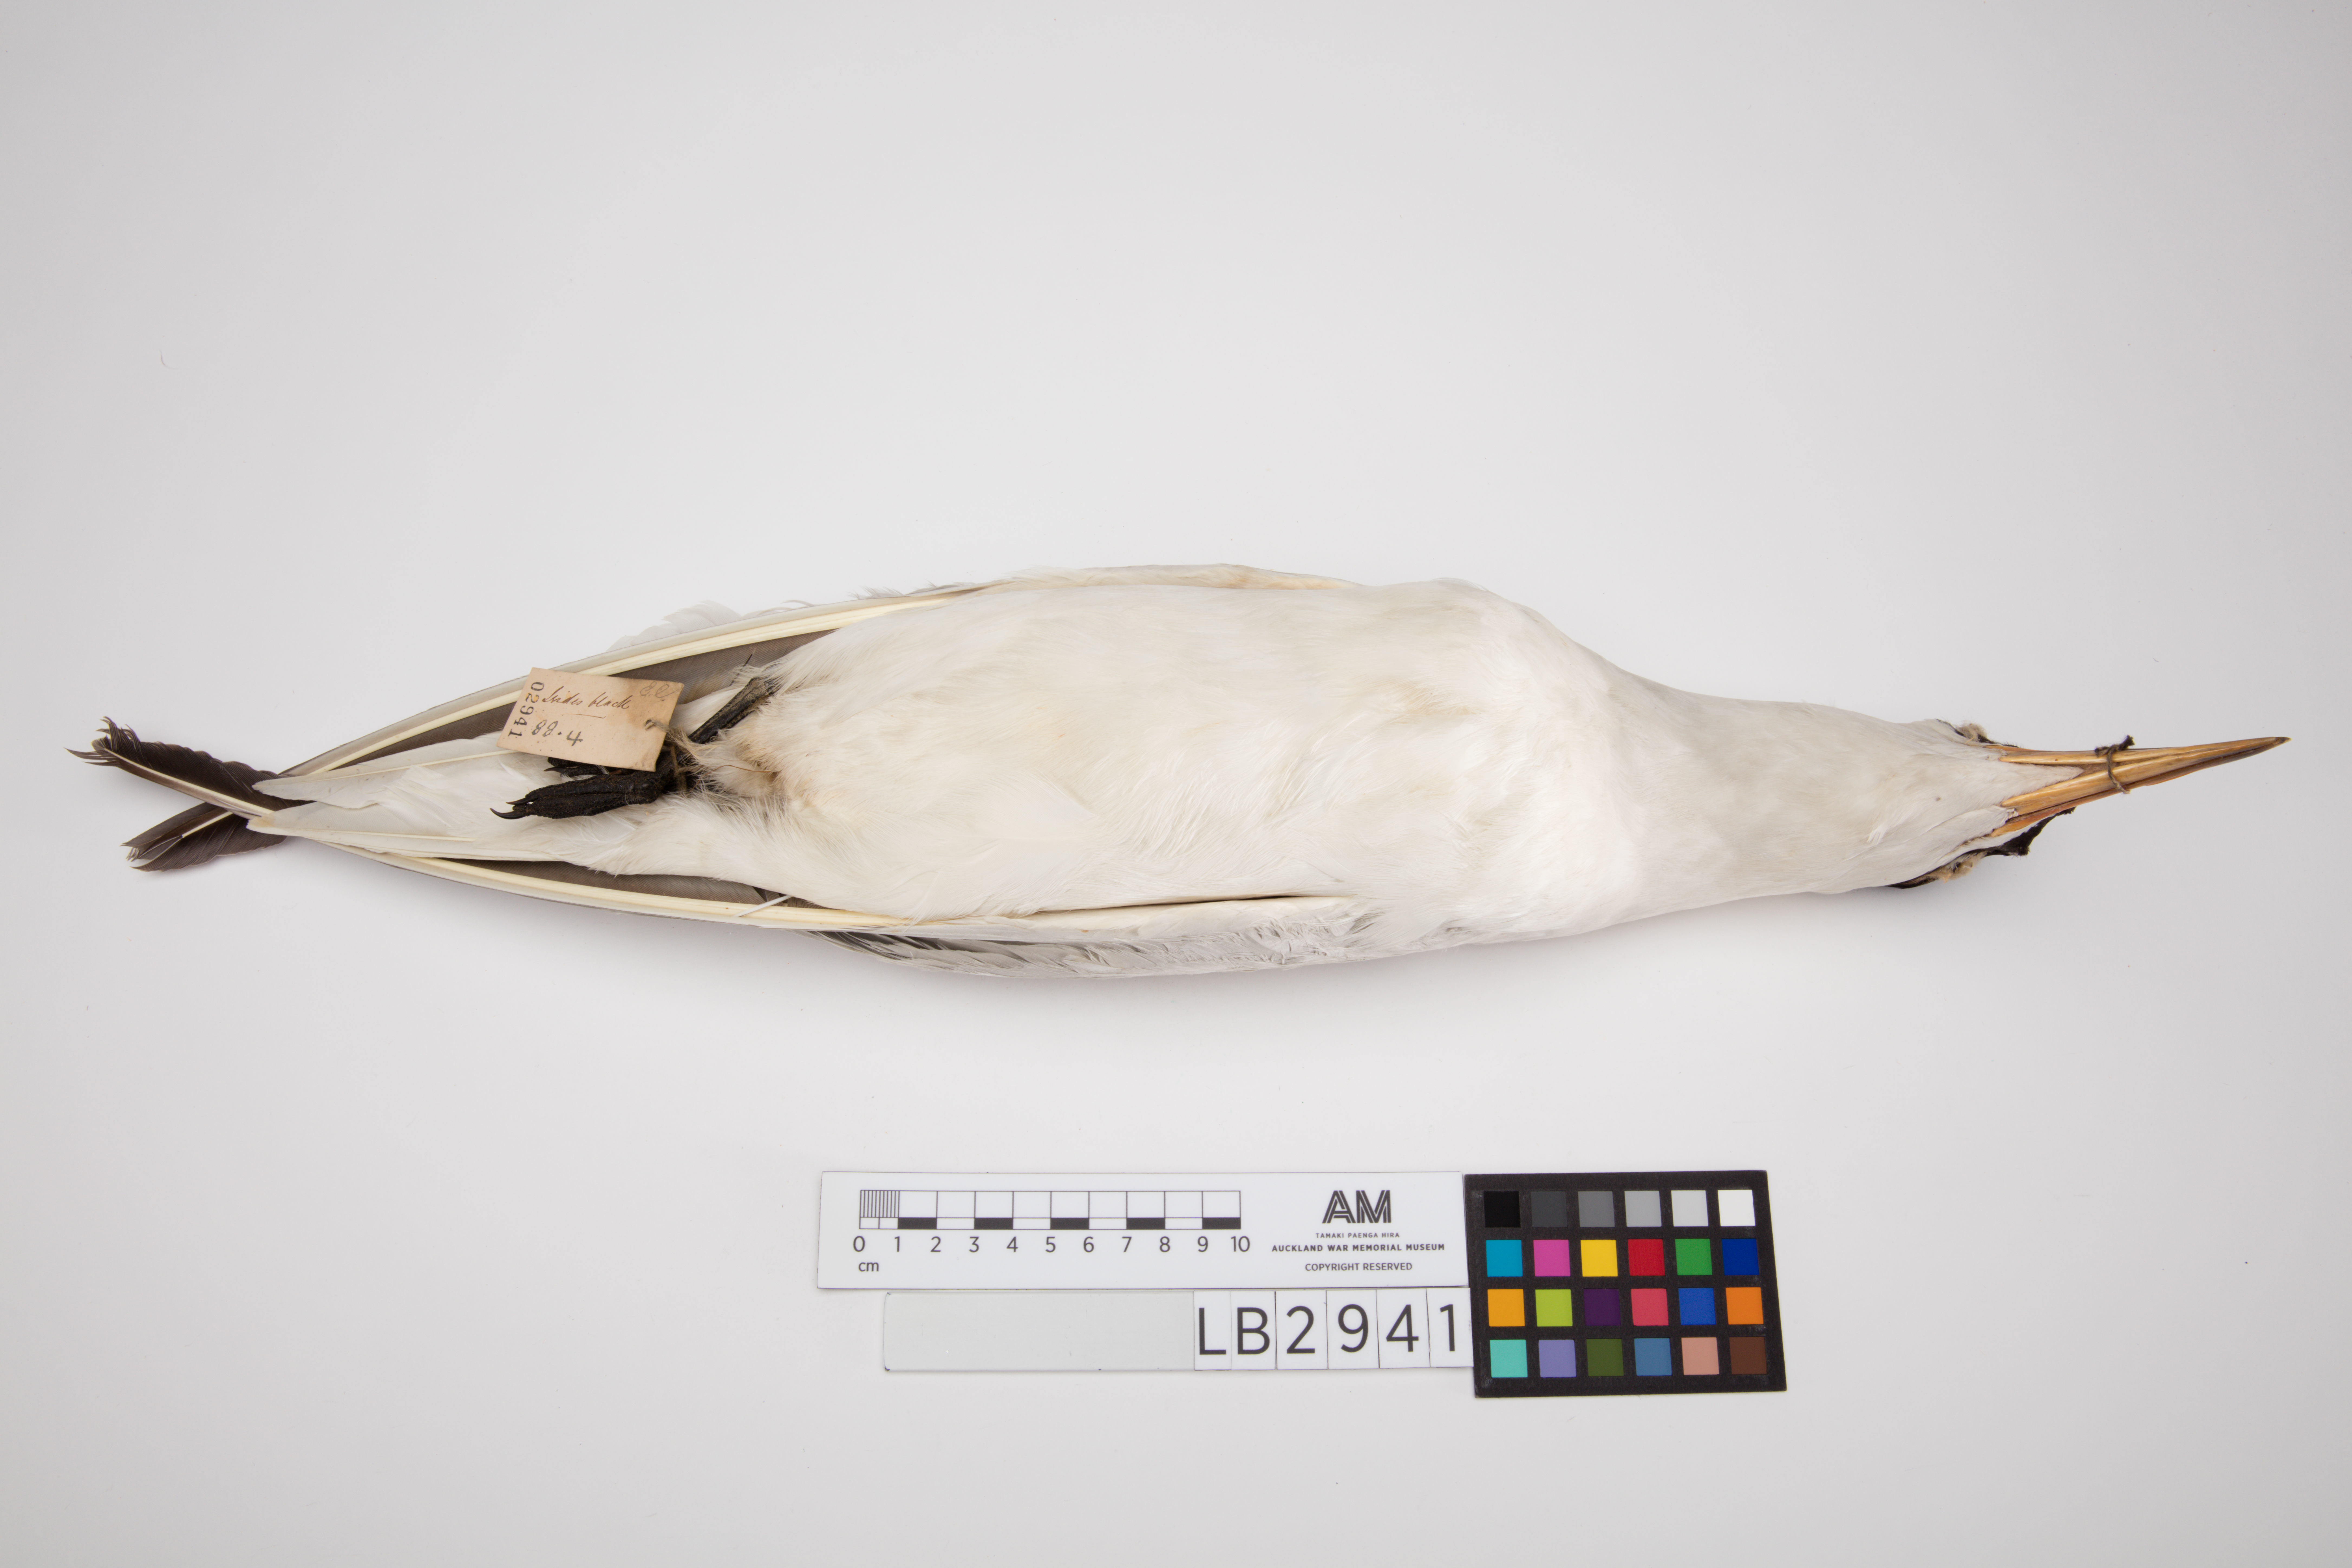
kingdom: Animalia
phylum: Chordata
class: Aves
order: Charadriiformes
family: Laridae
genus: Hydroprogne
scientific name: Hydroprogne caspia
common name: Caspian tern
